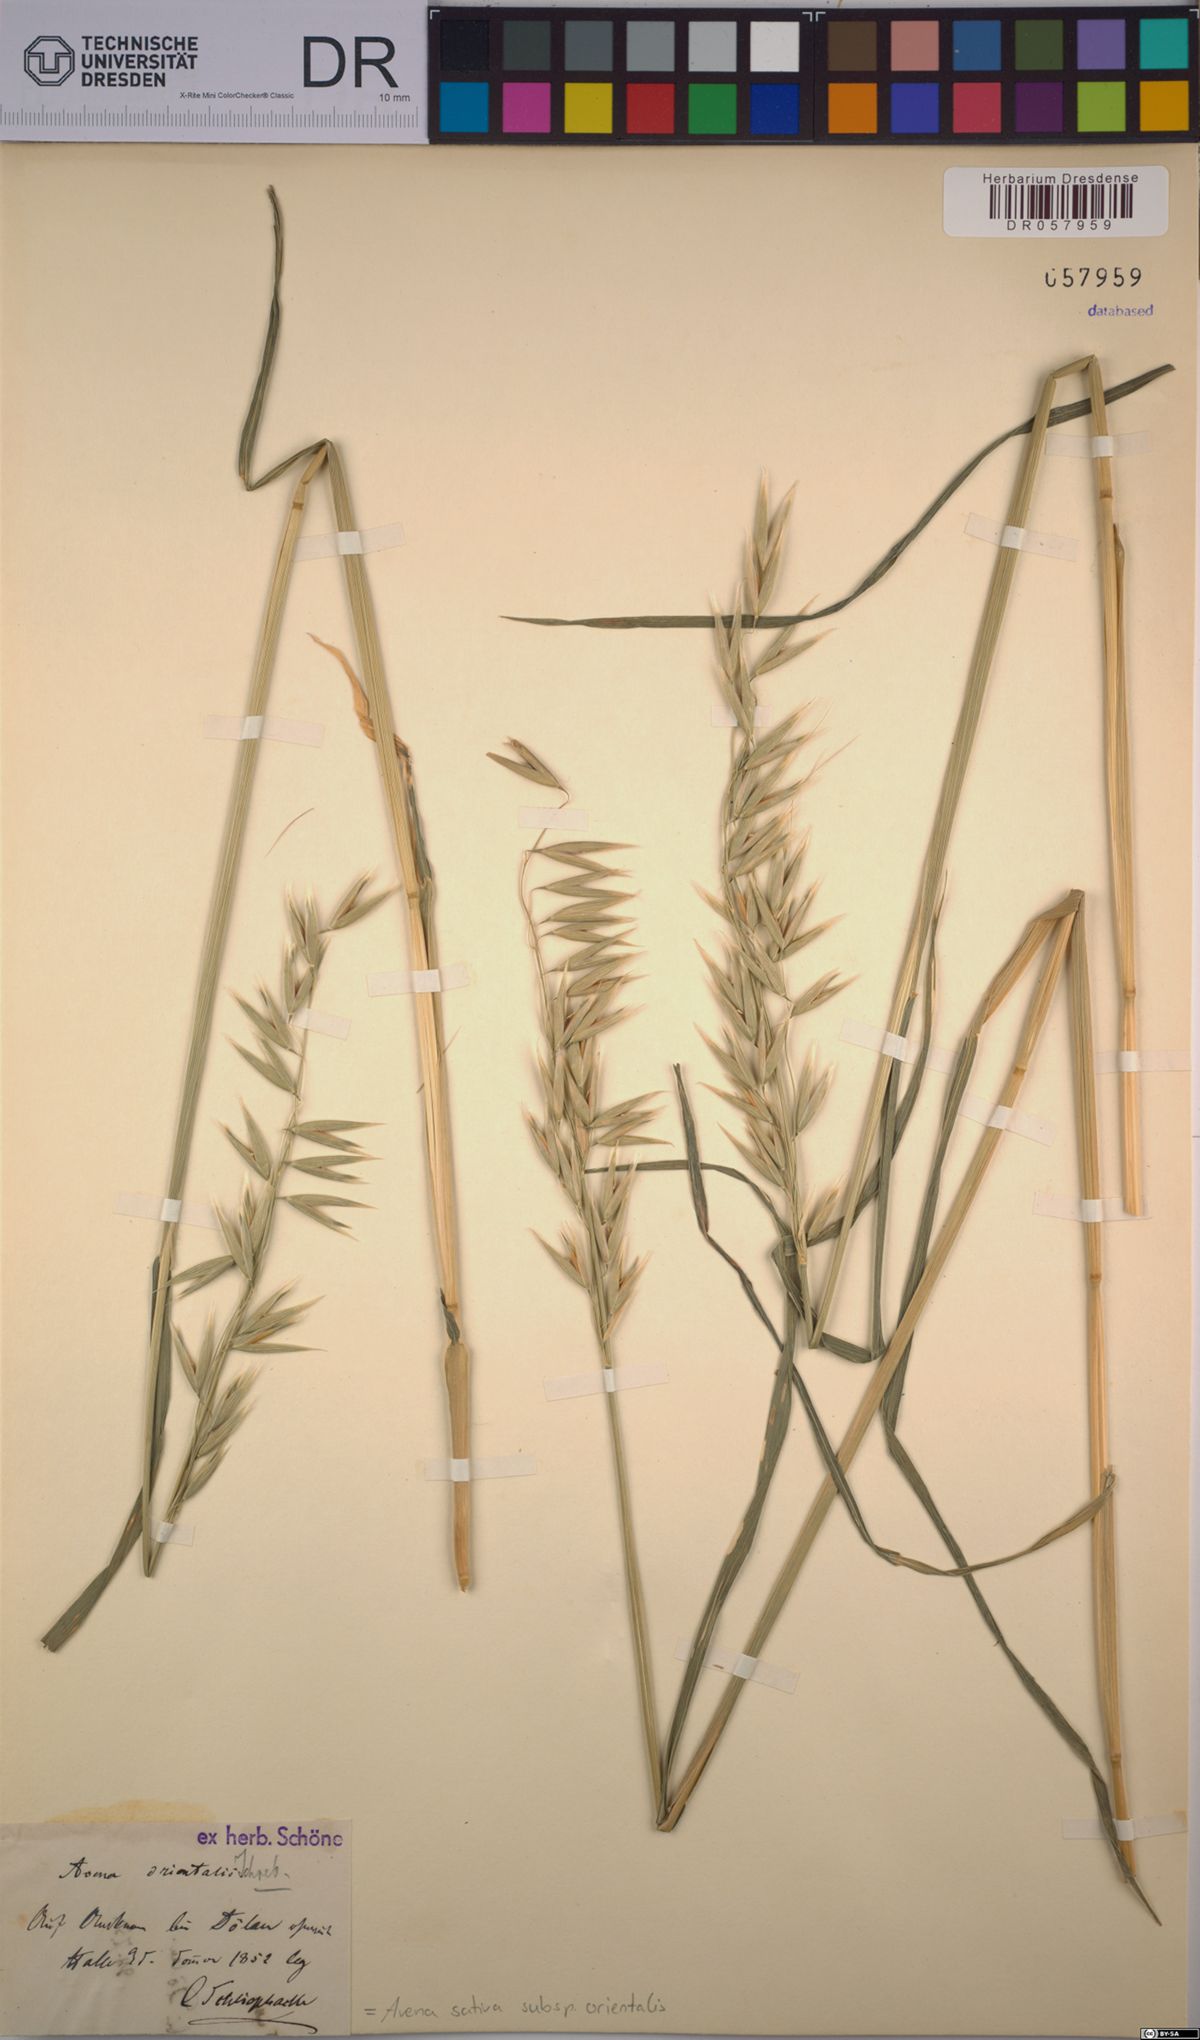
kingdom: Plantae
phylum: Tracheophyta
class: Liliopsida
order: Poales
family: Poaceae
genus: Avena
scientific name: Avena sativa
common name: Oat
